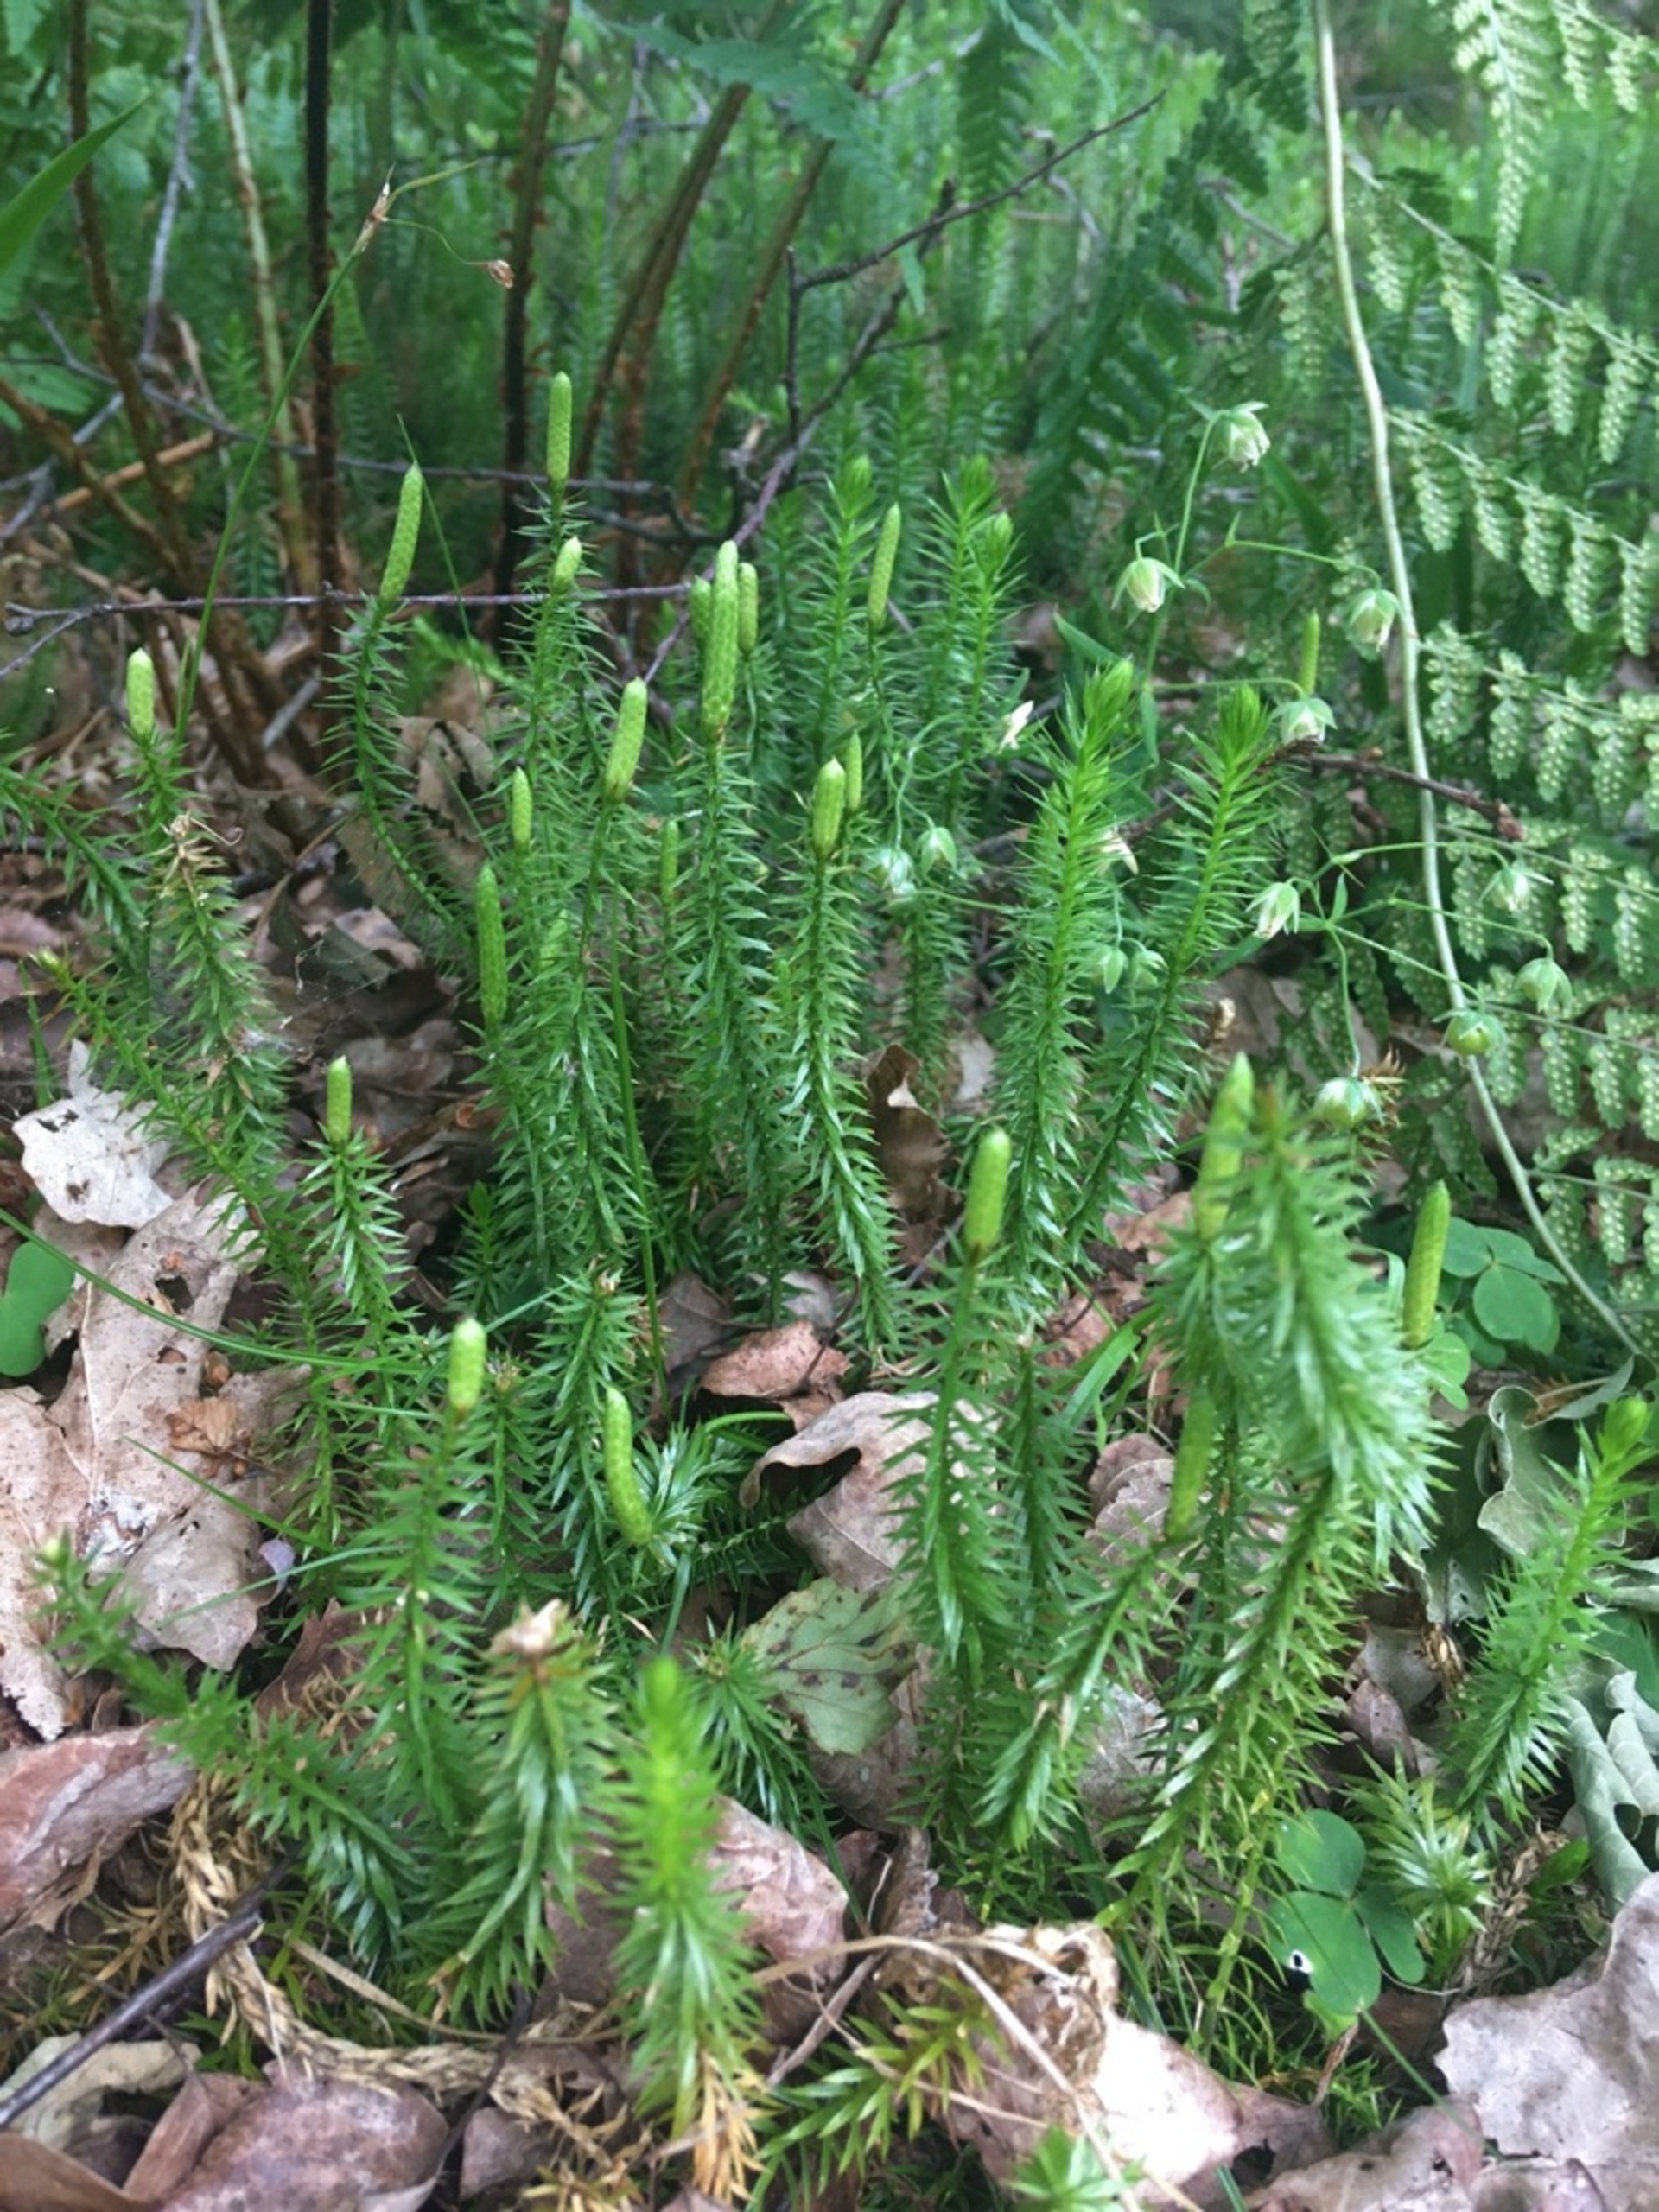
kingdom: Plantae
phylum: Tracheophyta
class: Lycopodiopsida
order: Lycopodiales
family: Lycopodiaceae
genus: Spinulum
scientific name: Spinulum annotinum
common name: Femradet ulvefod
